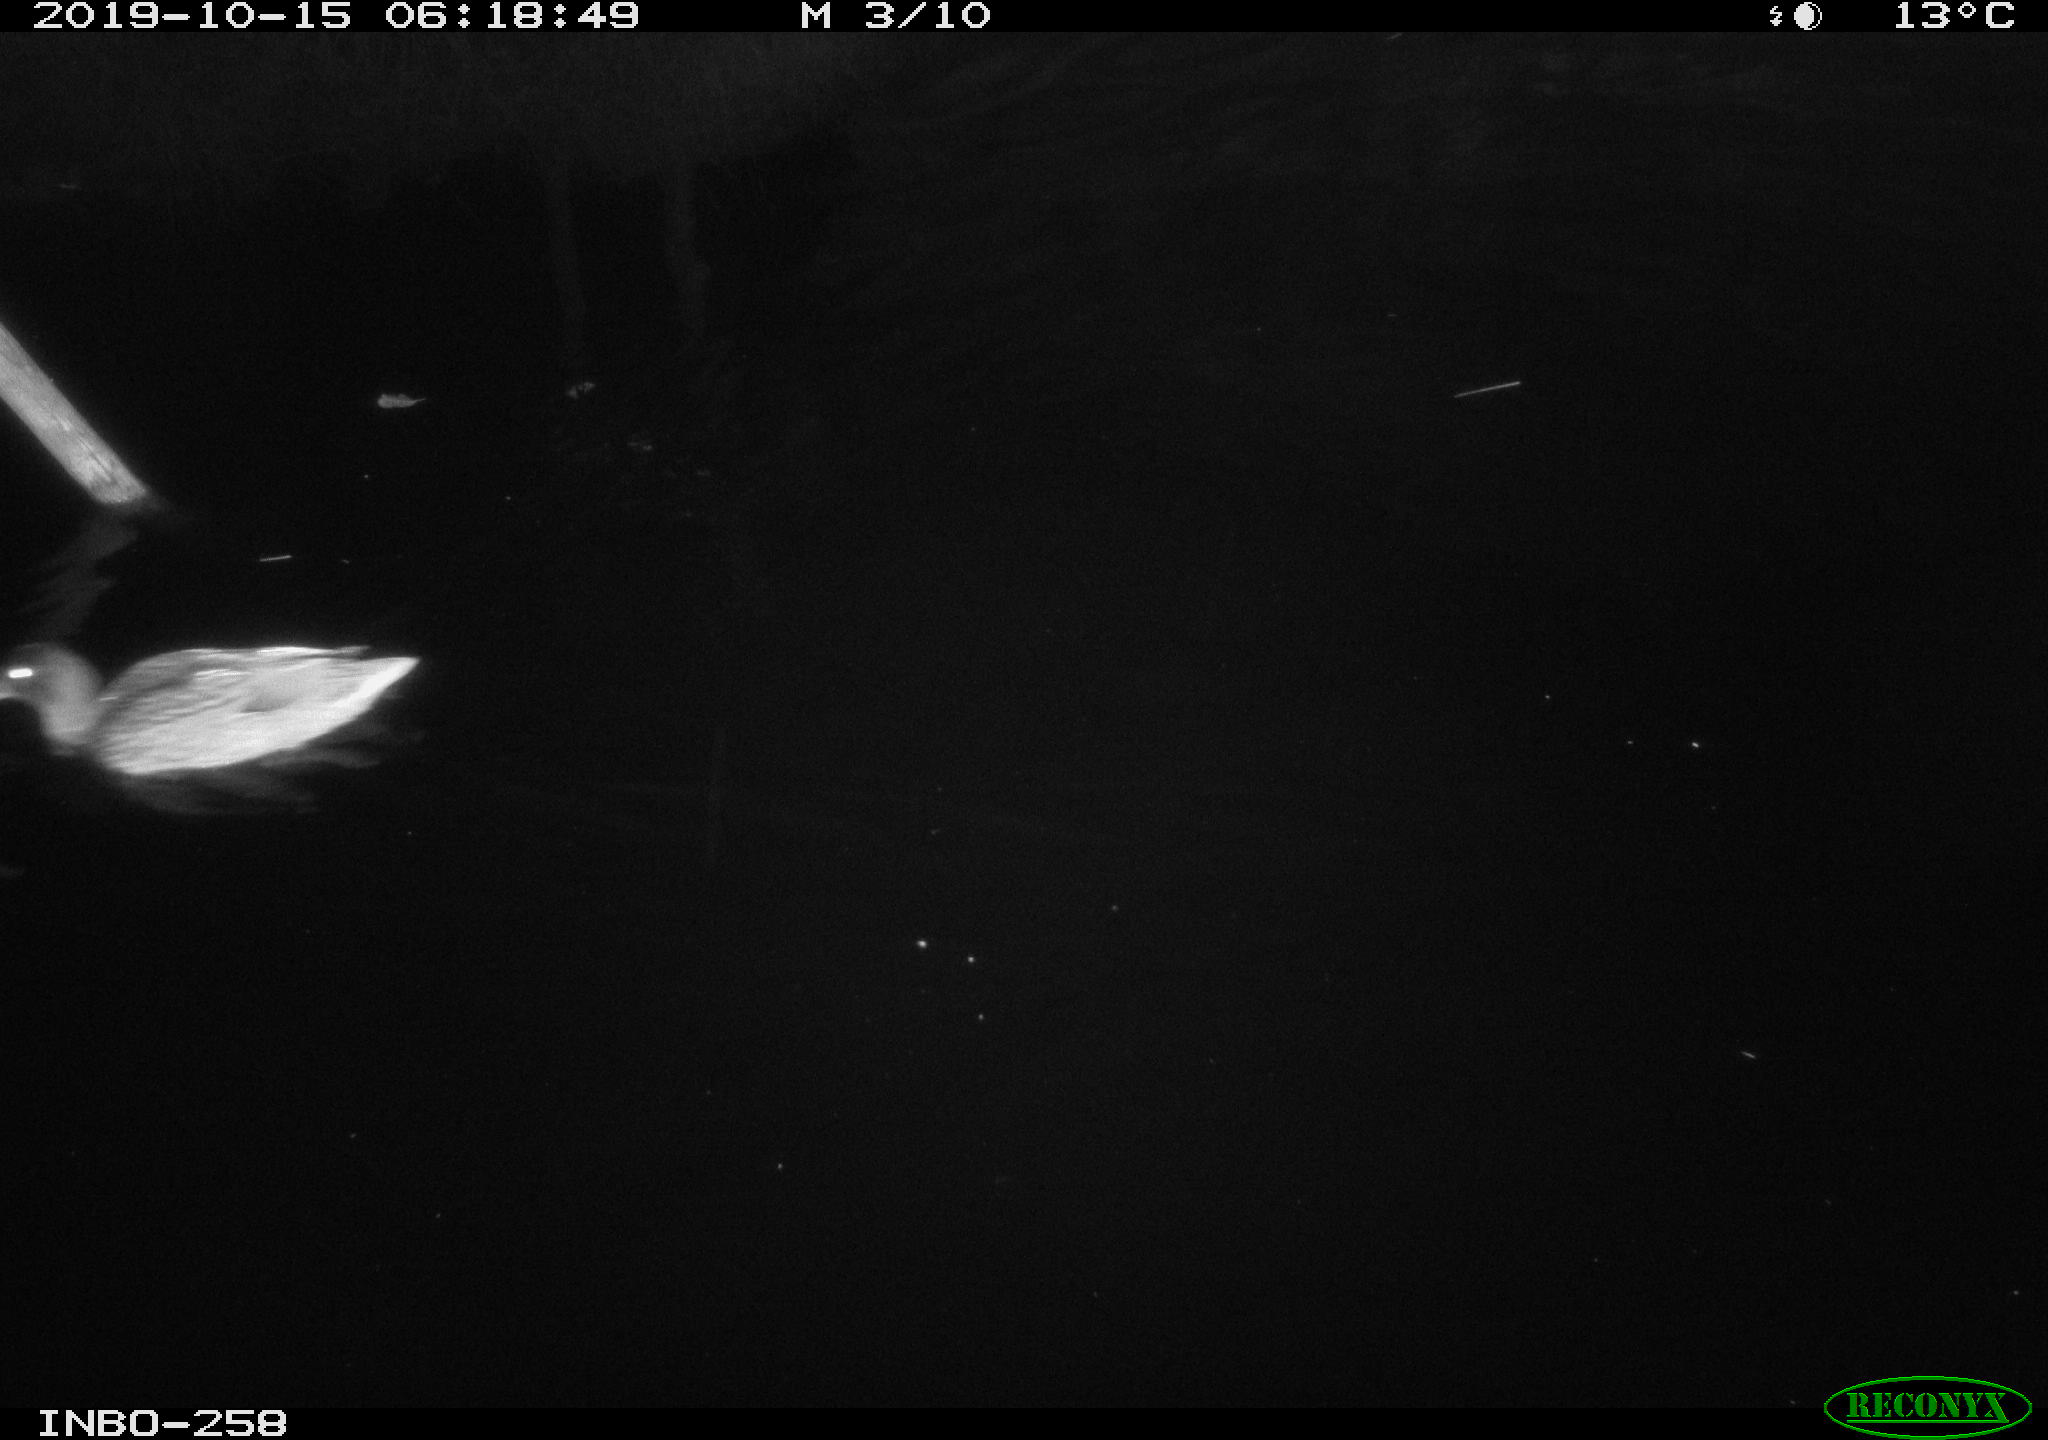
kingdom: Animalia
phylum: Chordata
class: Aves
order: Anseriformes
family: Anatidae
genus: Anas
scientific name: Anas platyrhynchos
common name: Mallard
